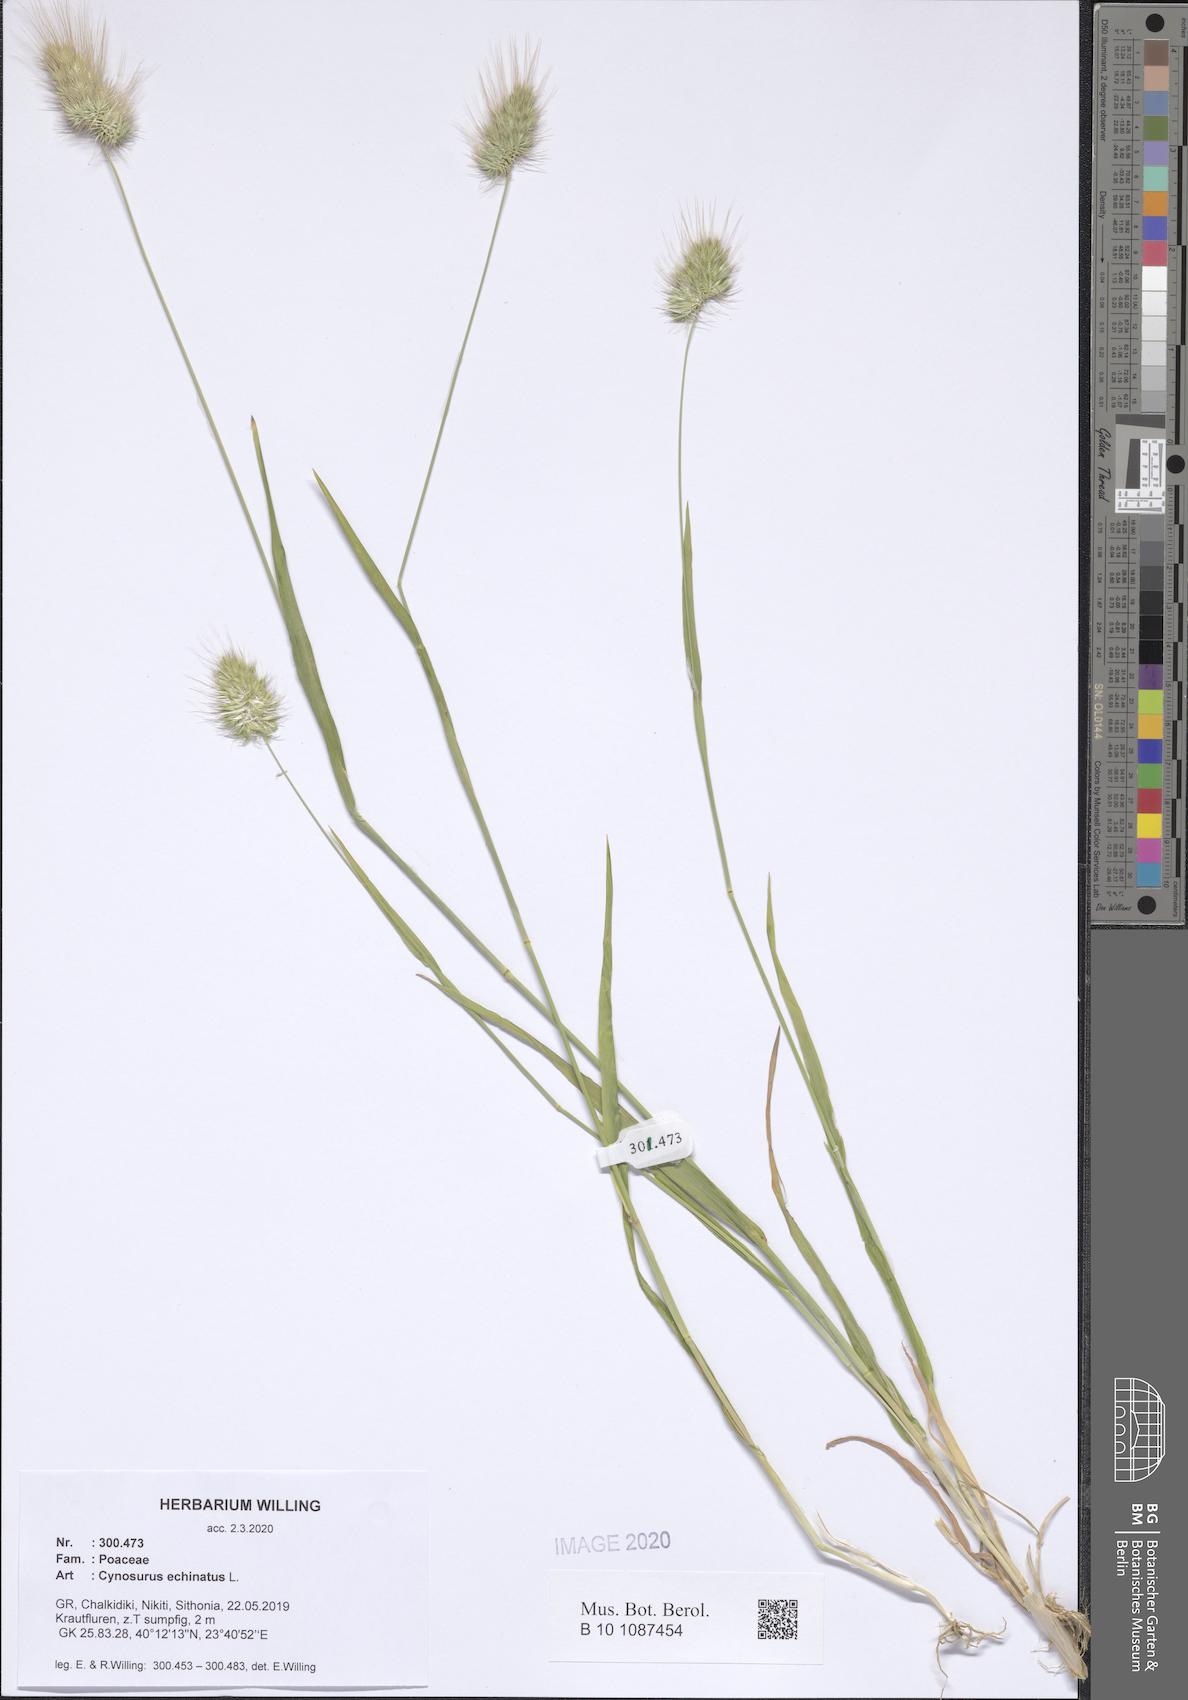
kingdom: Plantae
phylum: Tracheophyta
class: Liliopsida
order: Poales
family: Poaceae
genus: Cynosurus
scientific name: Cynosurus echinatus
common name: Rough dog's-tail
